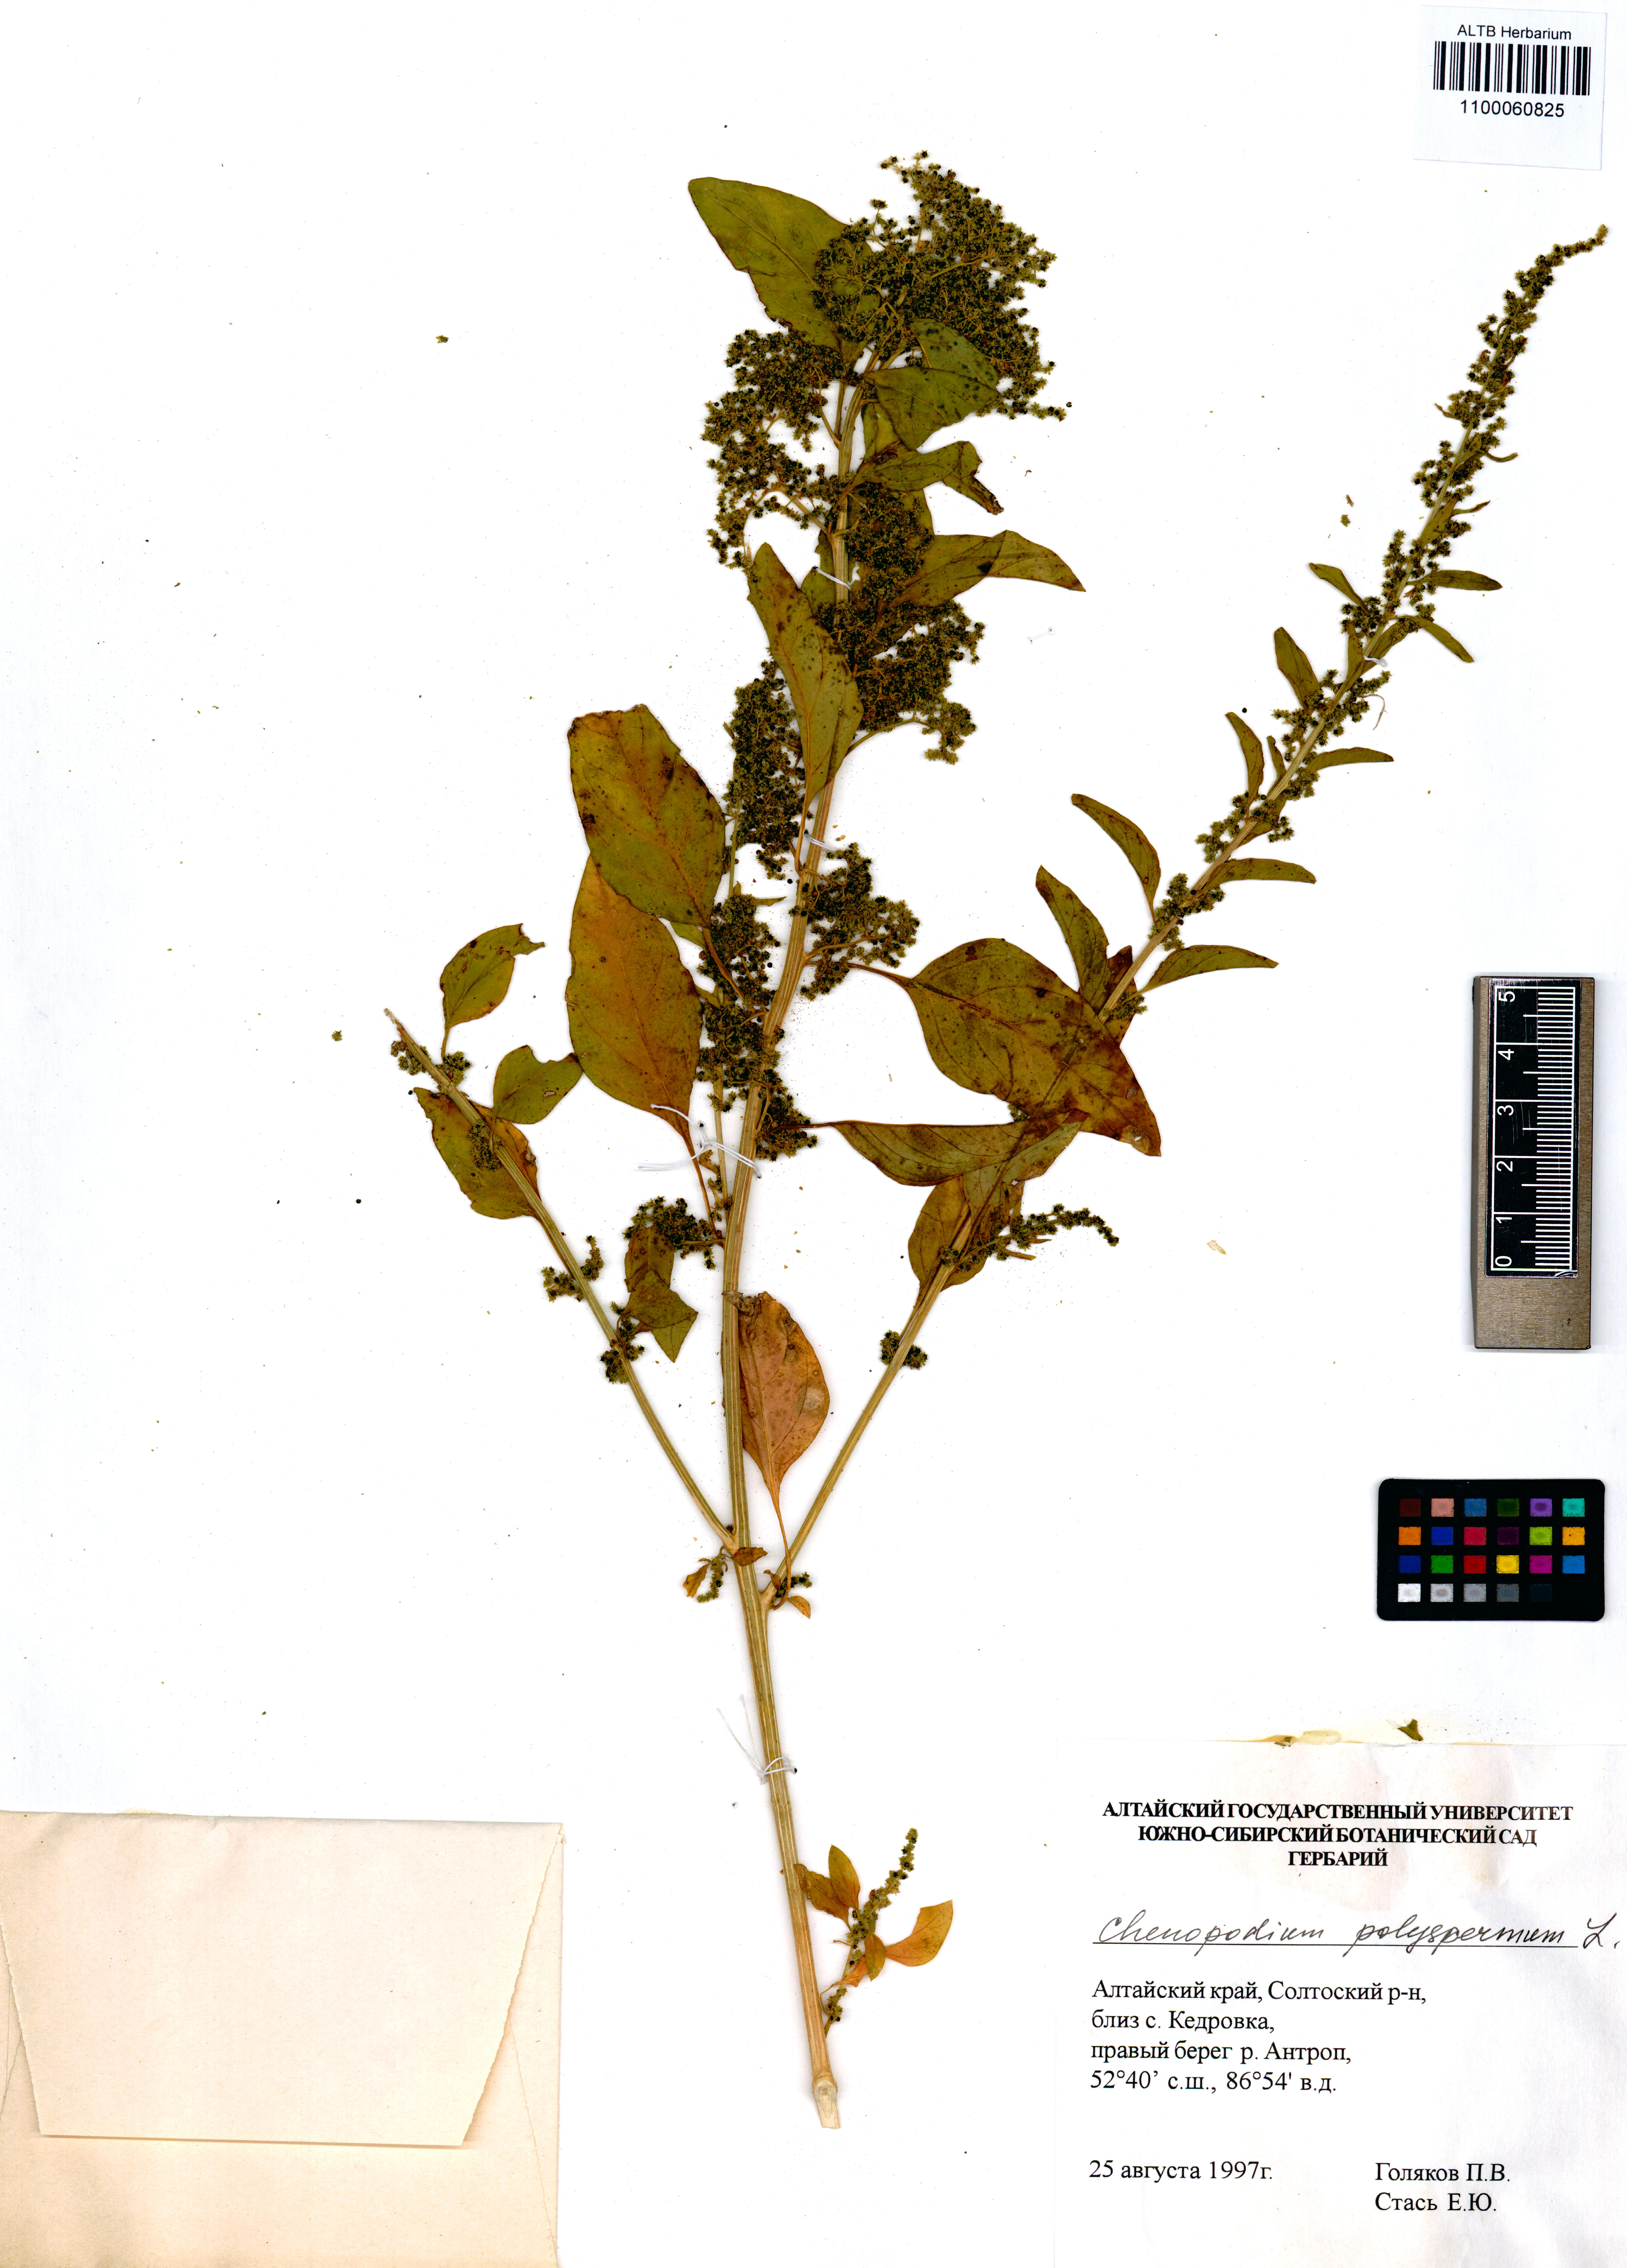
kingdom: Plantae
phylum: Tracheophyta
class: Magnoliopsida
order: Caryophyllales
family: Amaranthaceae
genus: Lipandra
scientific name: Lipandra polysperma
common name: Many-seed goosefoot
